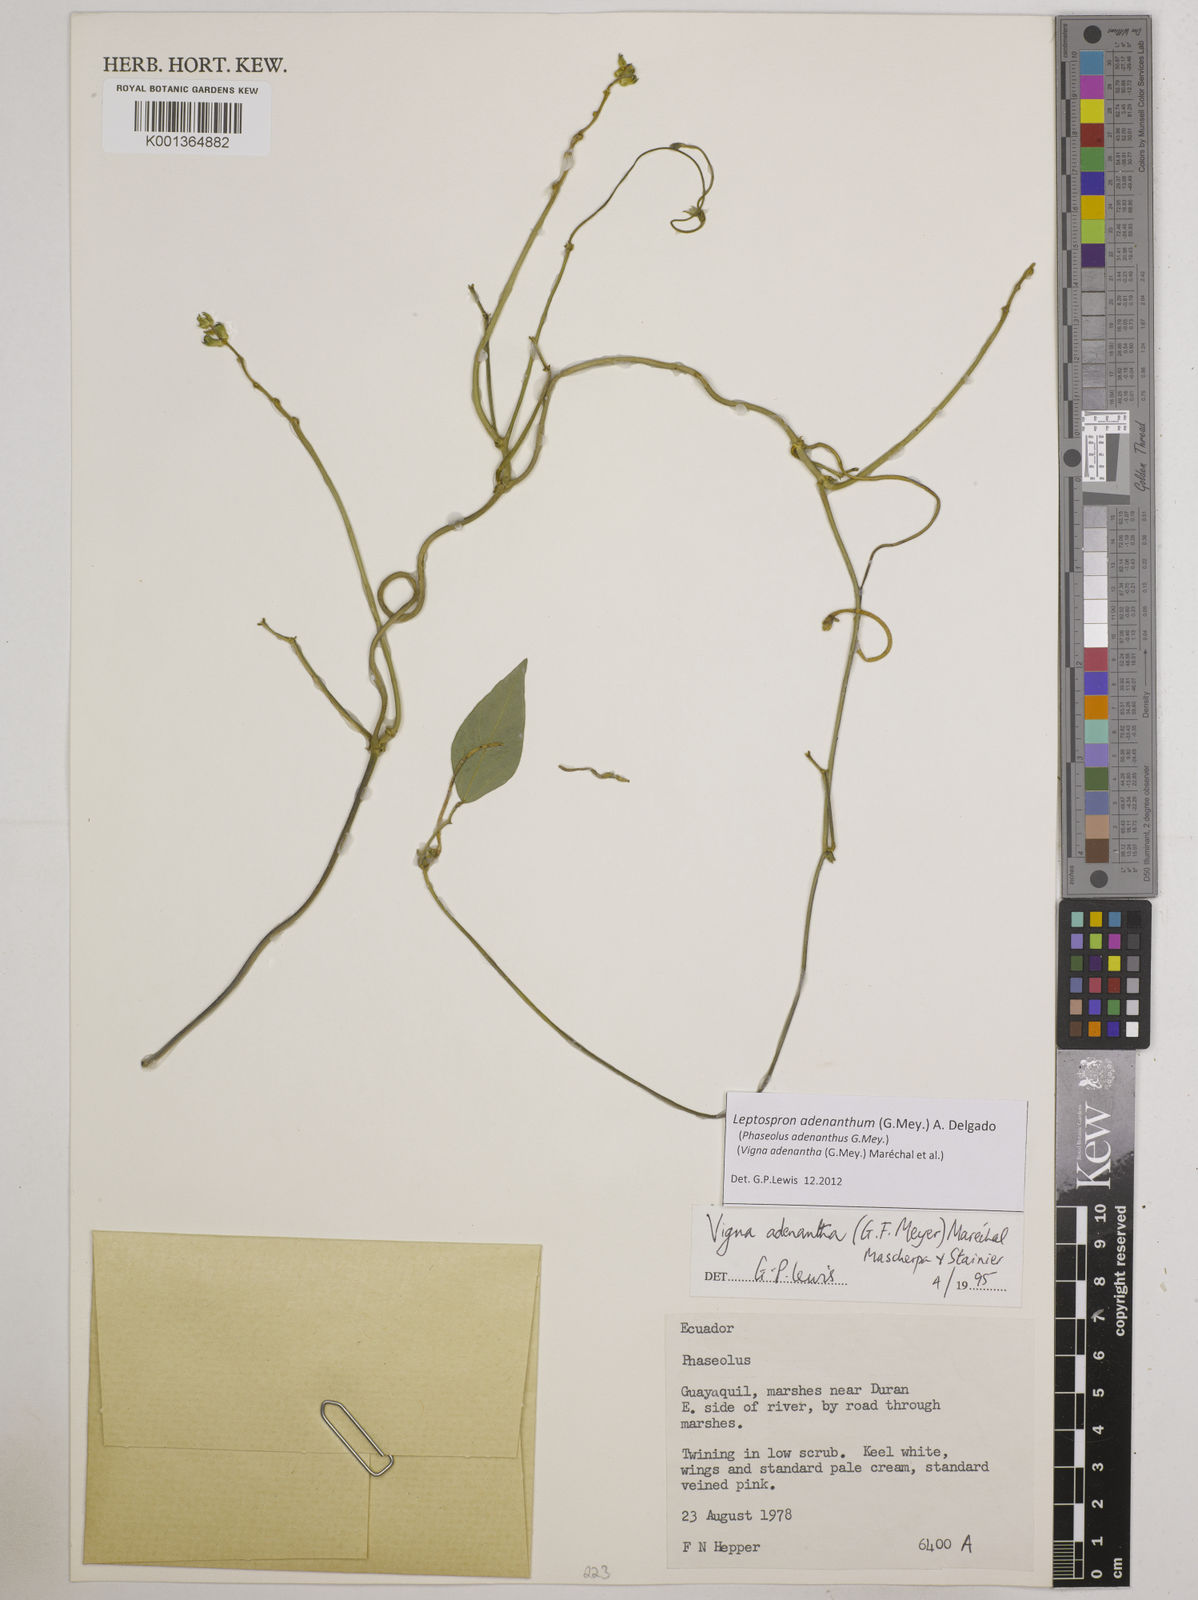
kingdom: Plantae
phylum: Tracheophyta
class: Magnoliopsida
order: Fabales
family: Fabaceae
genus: Leptospron
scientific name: Leptospron adenanthum
